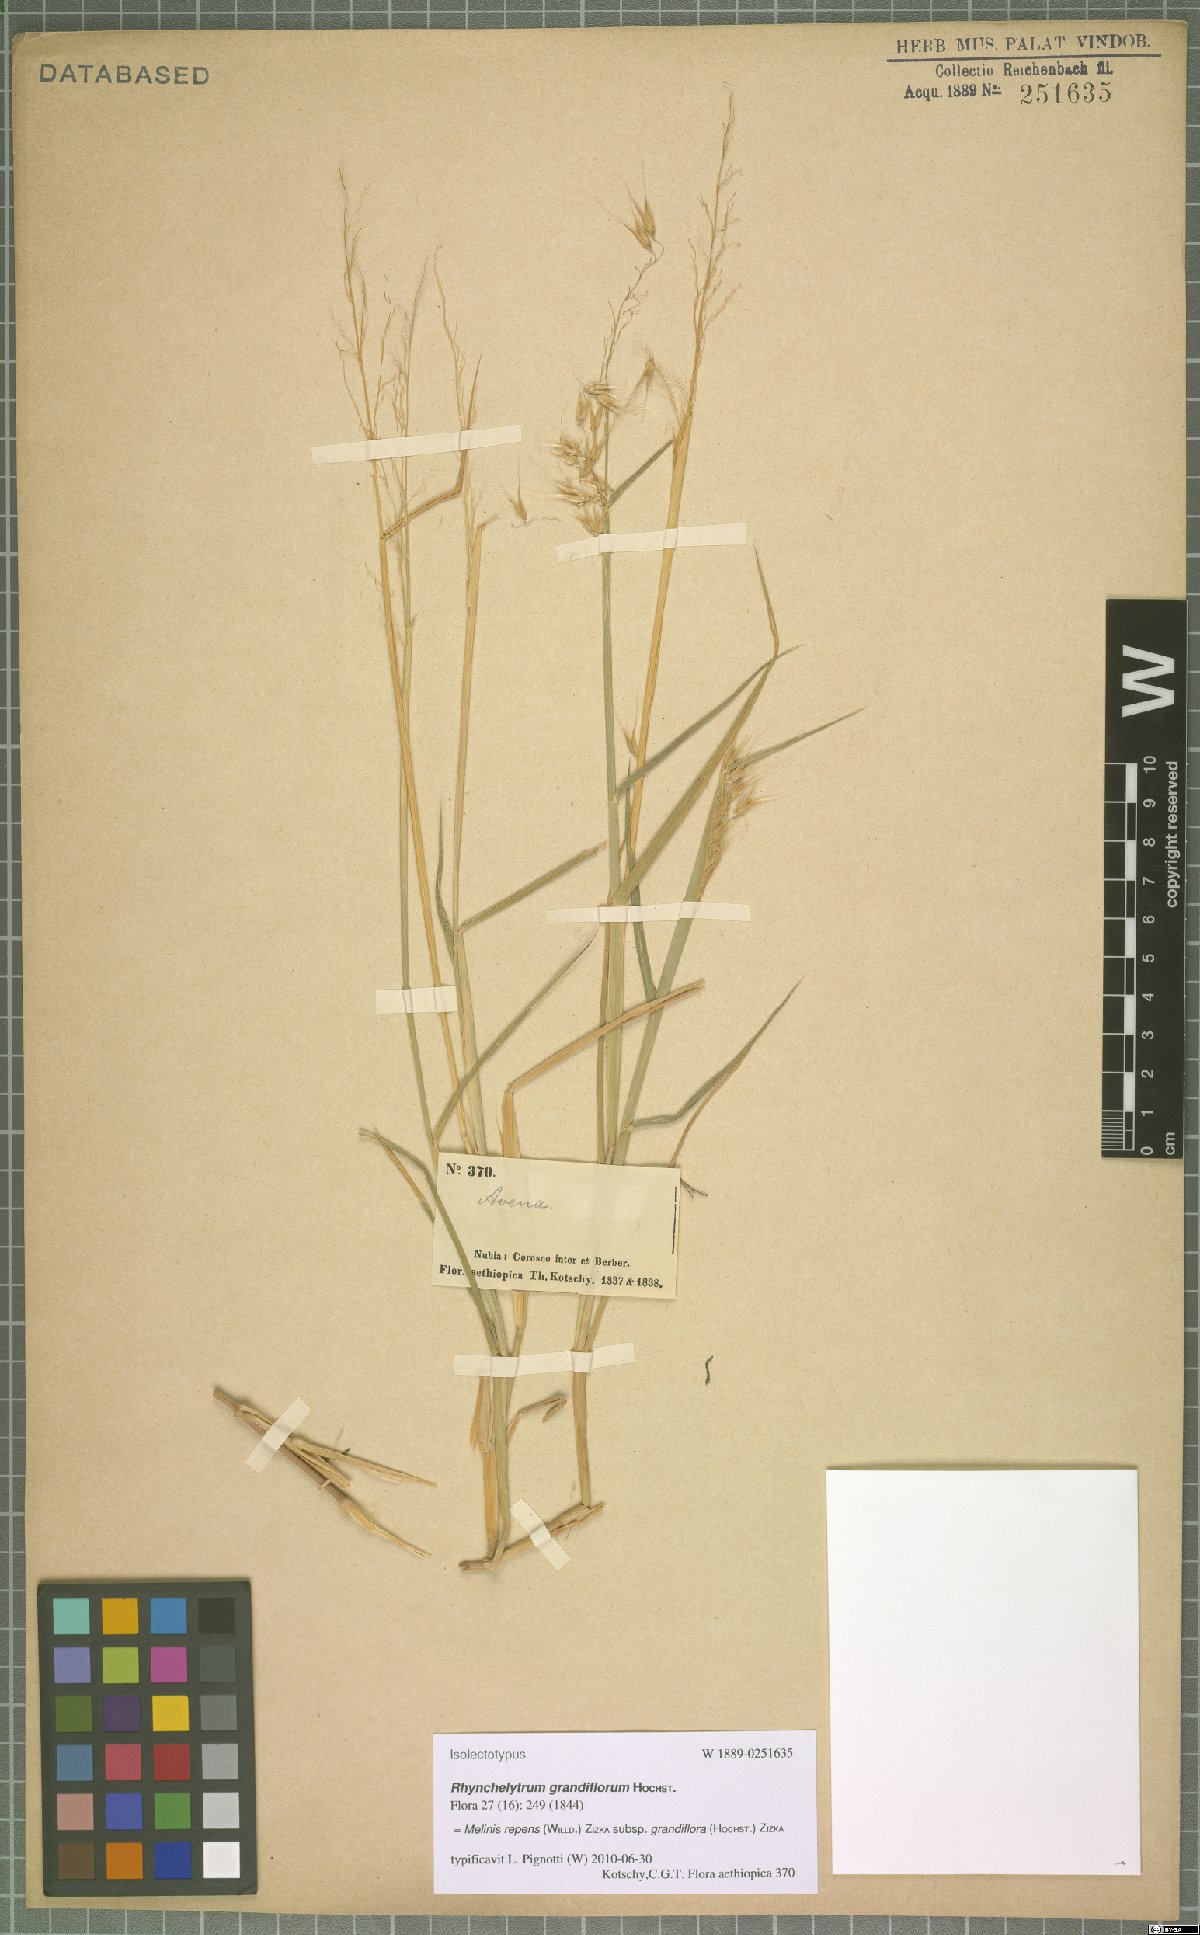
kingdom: Plantae
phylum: Tracheophyta
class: Liliopsida
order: Poales
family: Poaceae
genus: Melinis
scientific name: Melinis repens
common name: Rose natal grass
